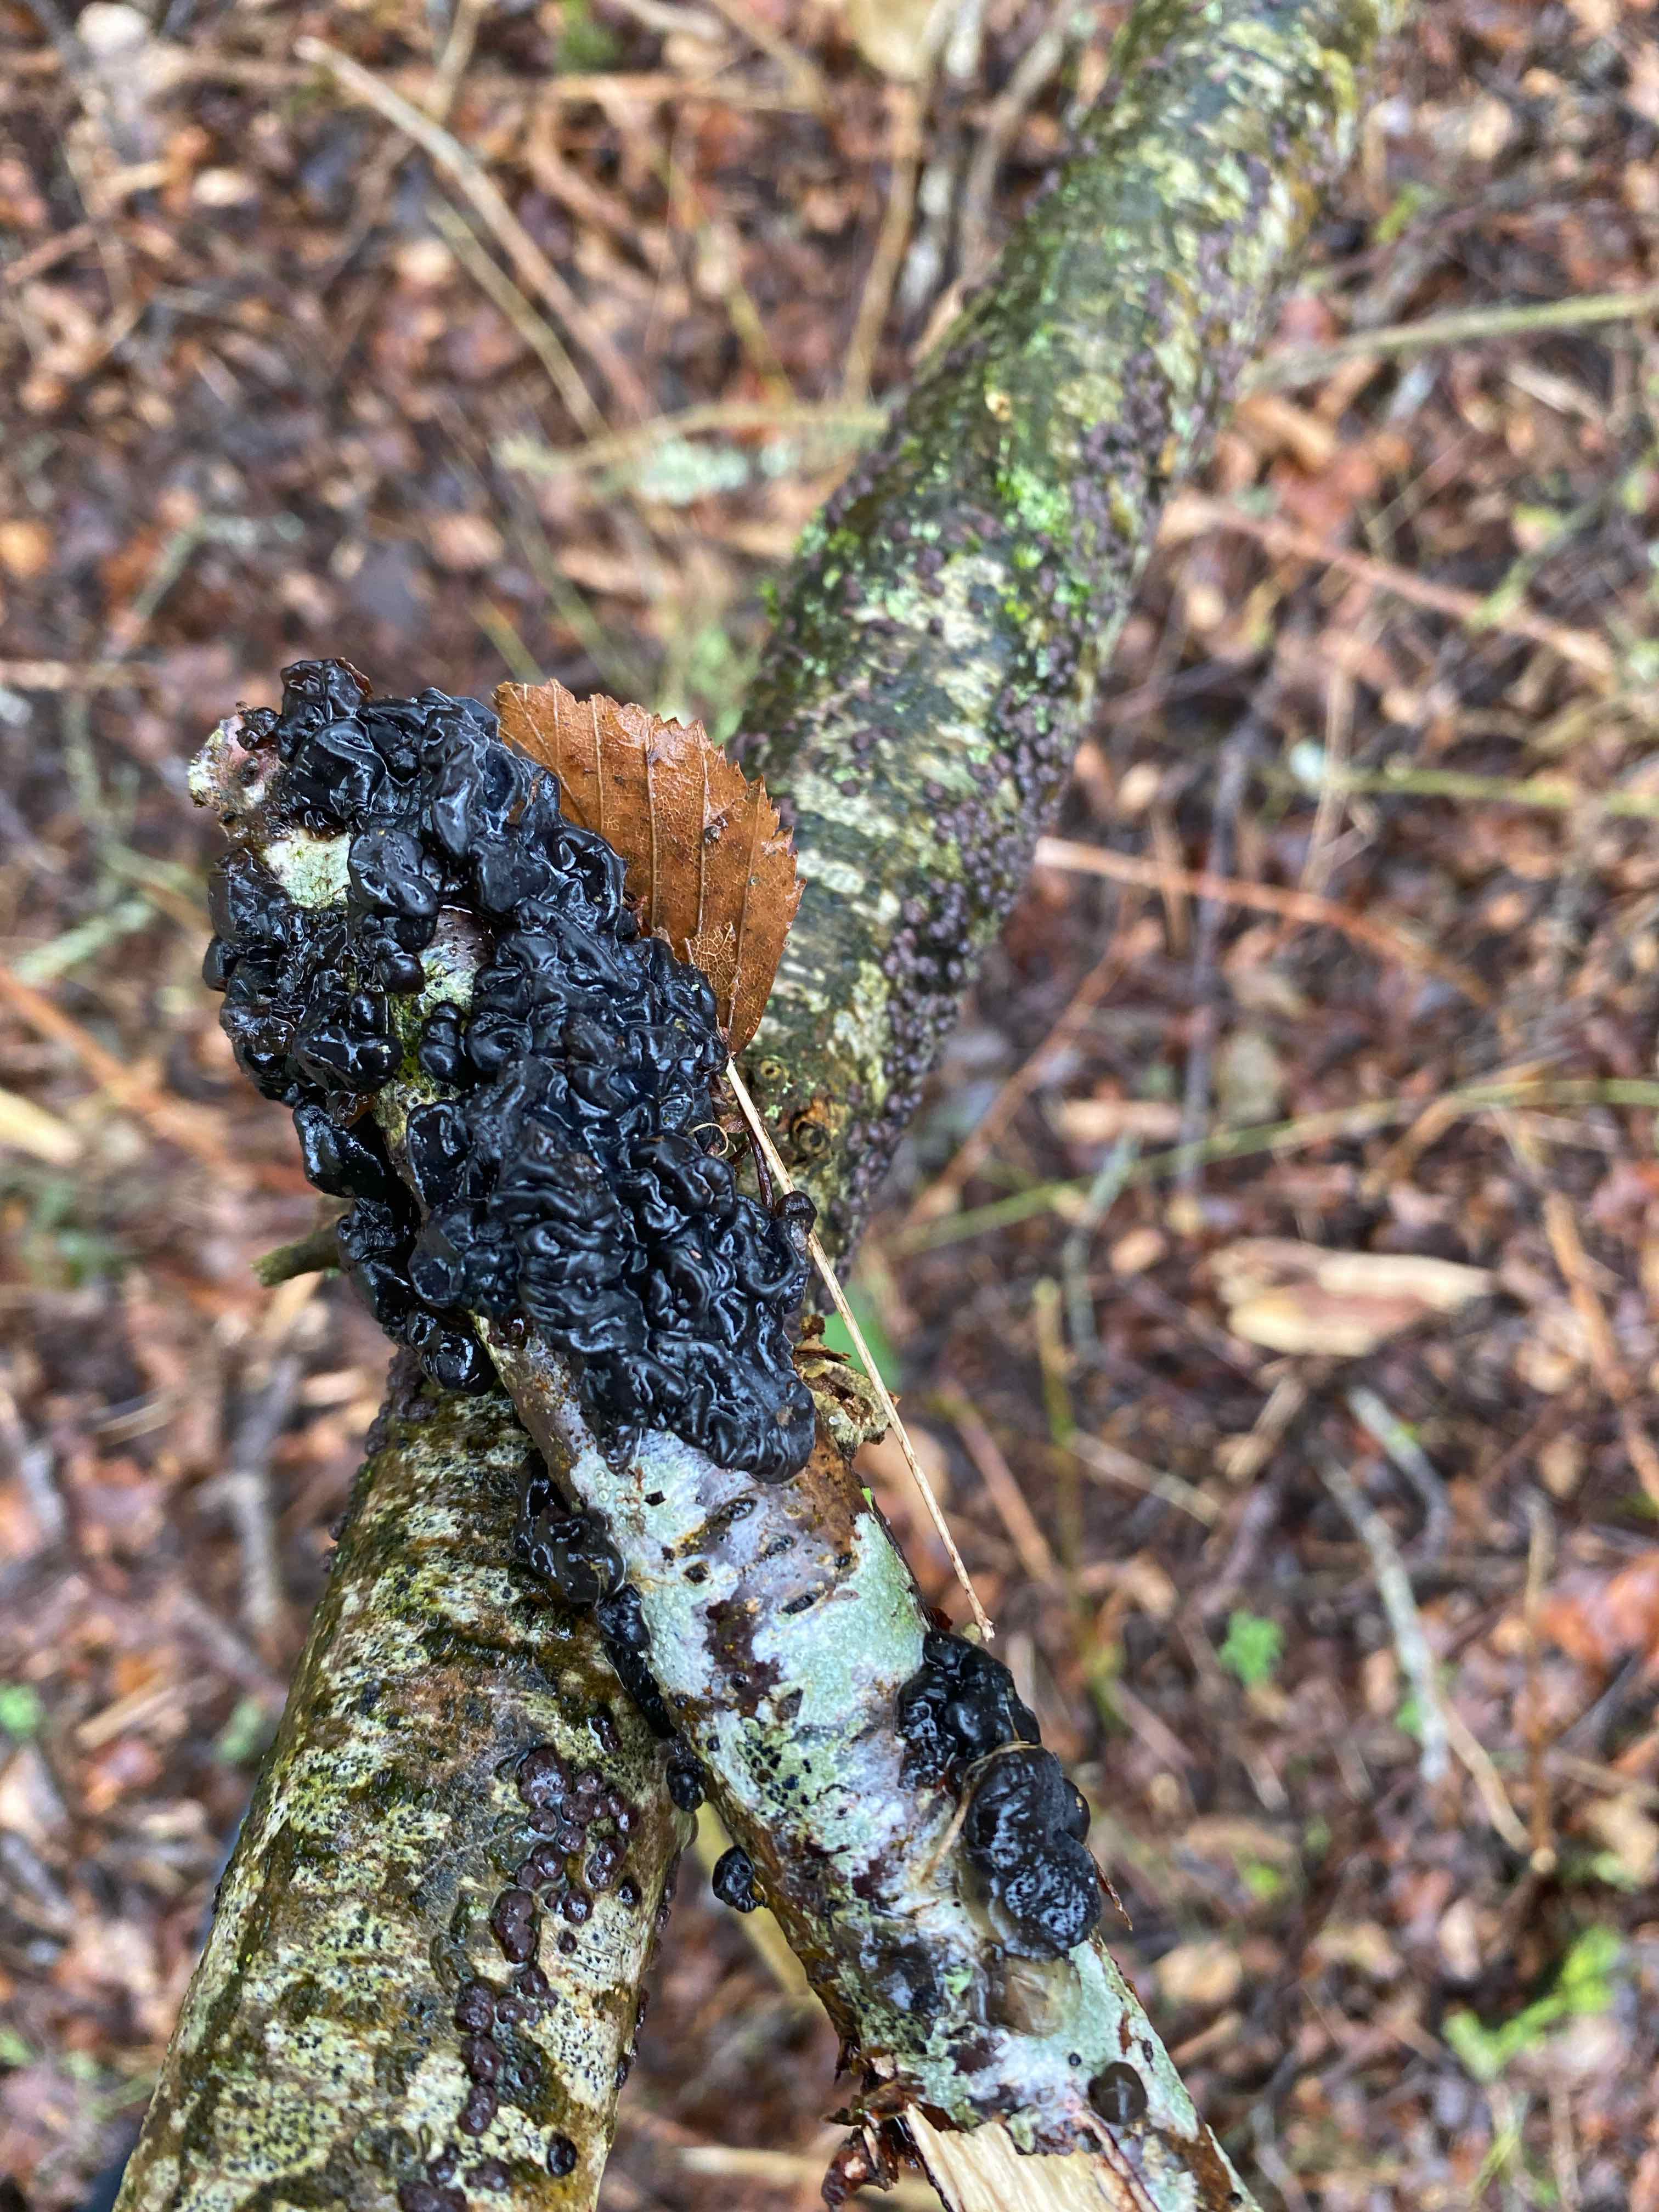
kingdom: Fungi
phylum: Basidiomycota
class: Agaricomycetes
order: Auriculariales
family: Auriculariaceae
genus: Exidia
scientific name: Exidia nigricans
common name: almindelig bævretop
